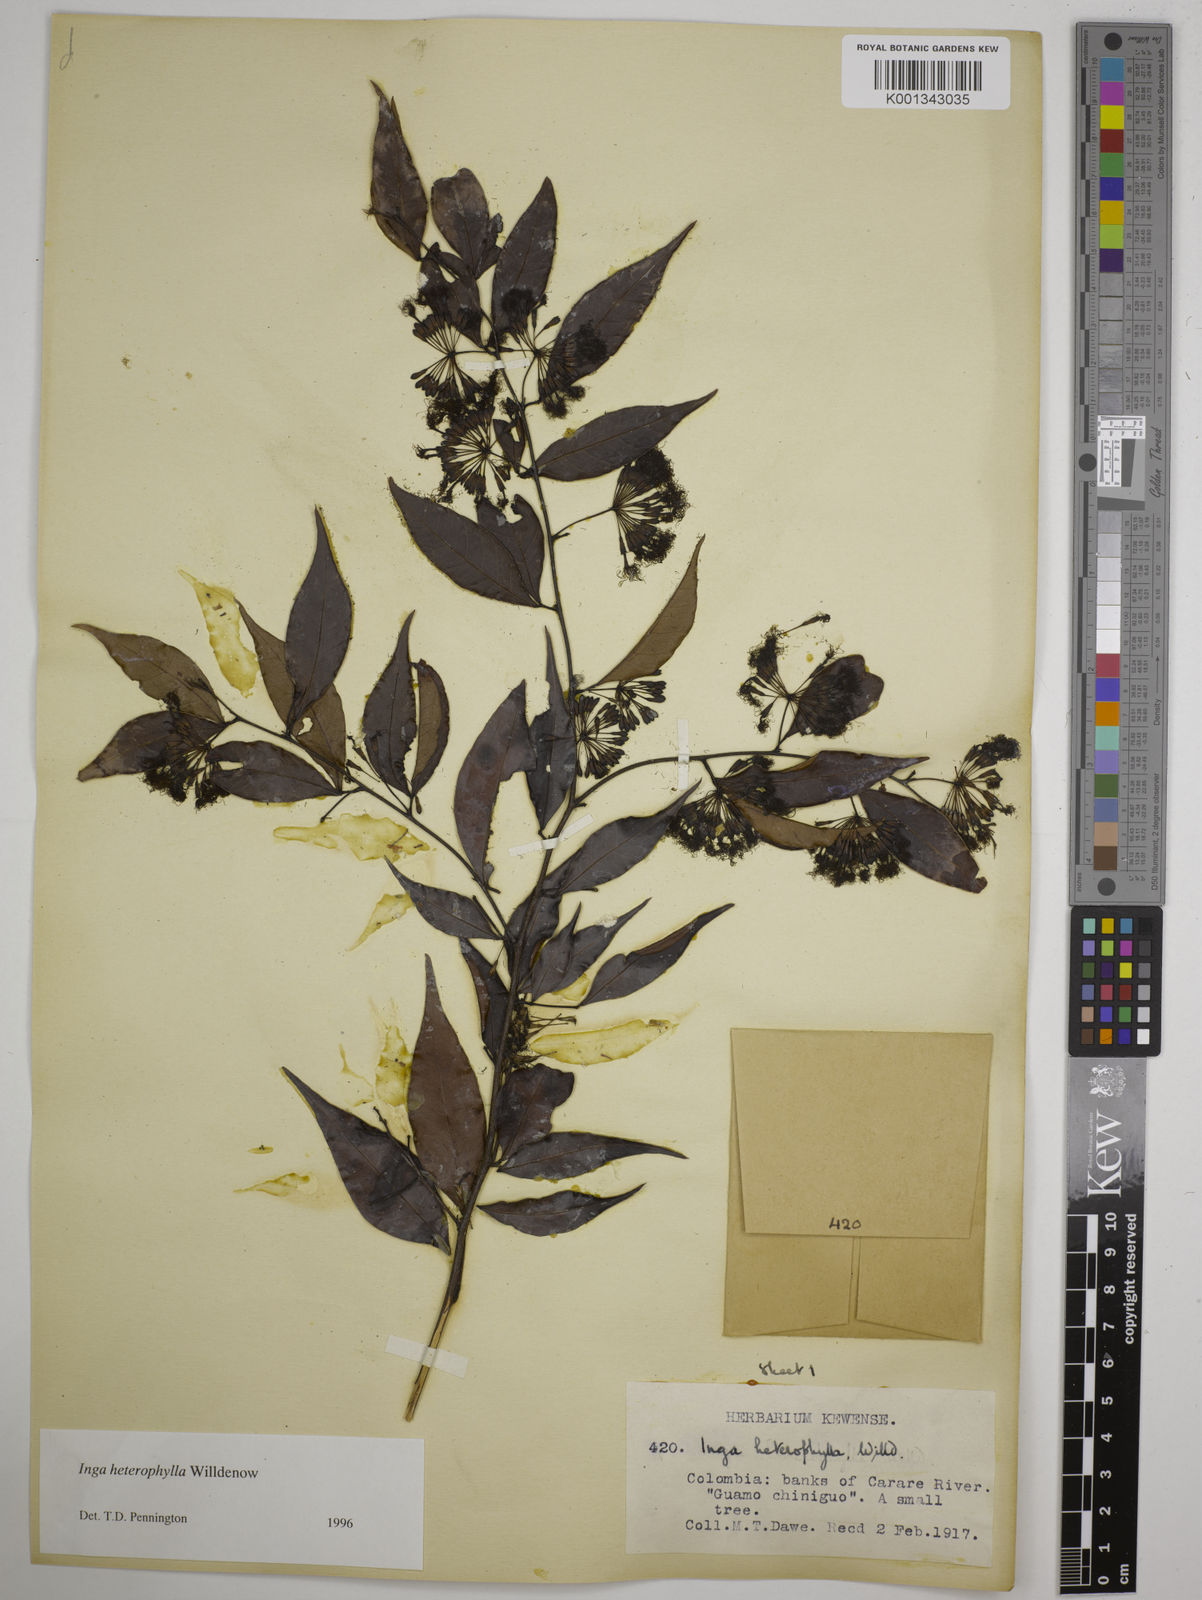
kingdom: Plantae
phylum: Tracheophyta
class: Magnoliopsida
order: Fabales
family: Fabaceae
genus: Inga
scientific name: Inga heterophylla
